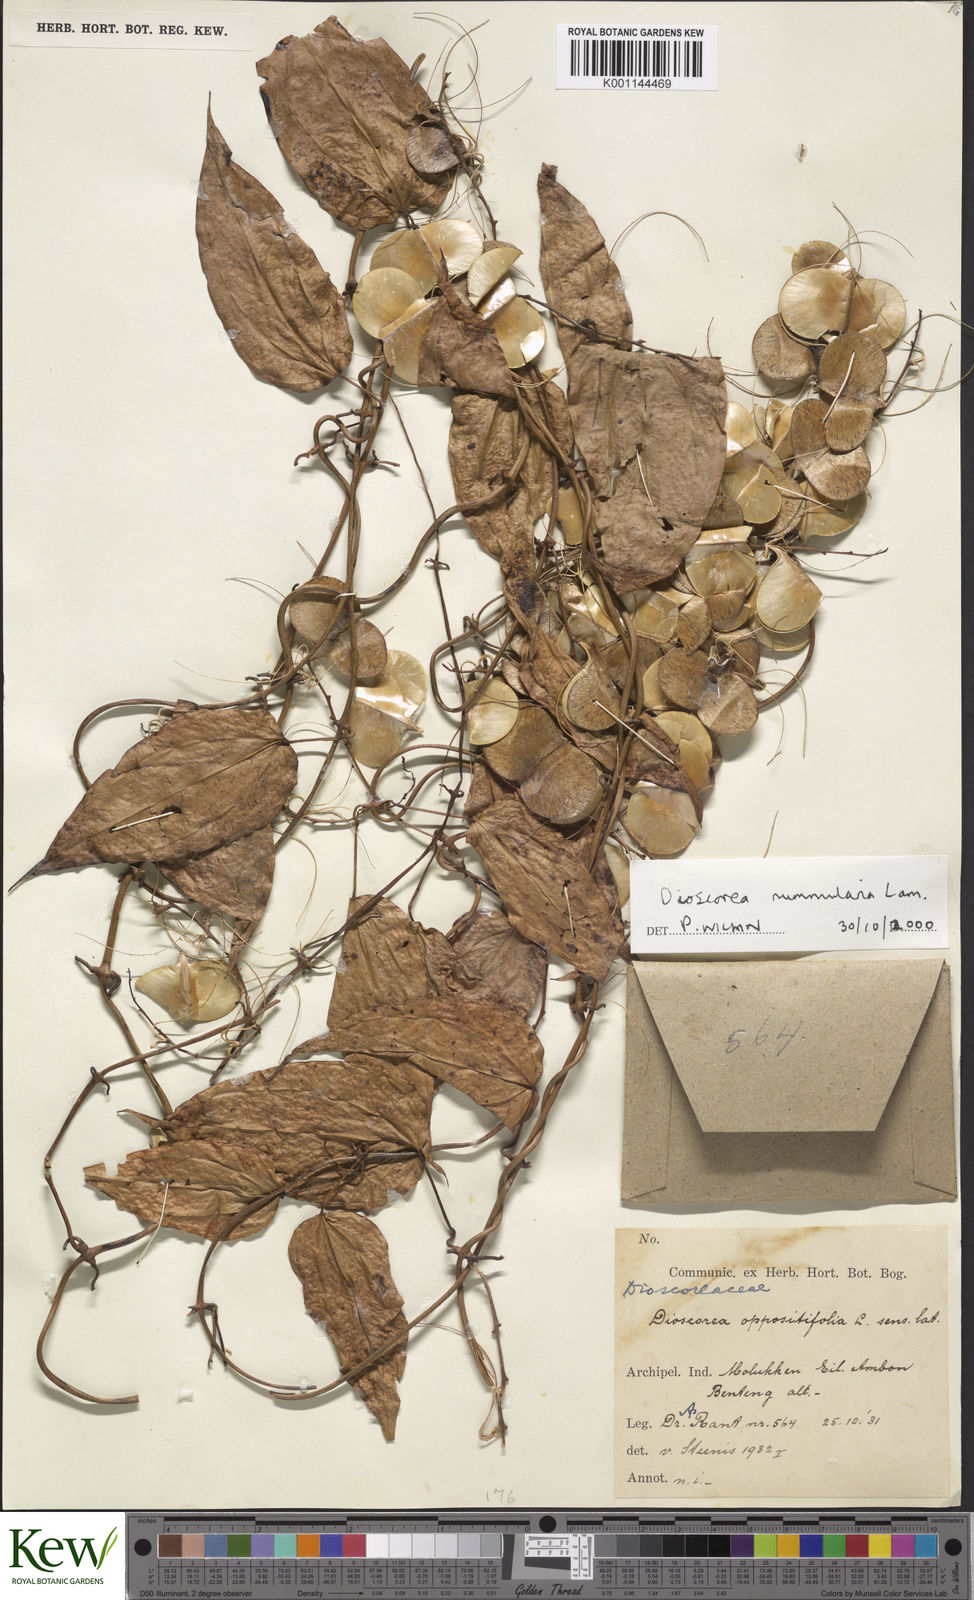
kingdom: Plantae
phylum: Tracheophyta
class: Liliopsida
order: Dioscoreales
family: Dioscoreaceae
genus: Dioscorea
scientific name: Dioscorea nummularia
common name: Pacific yam
